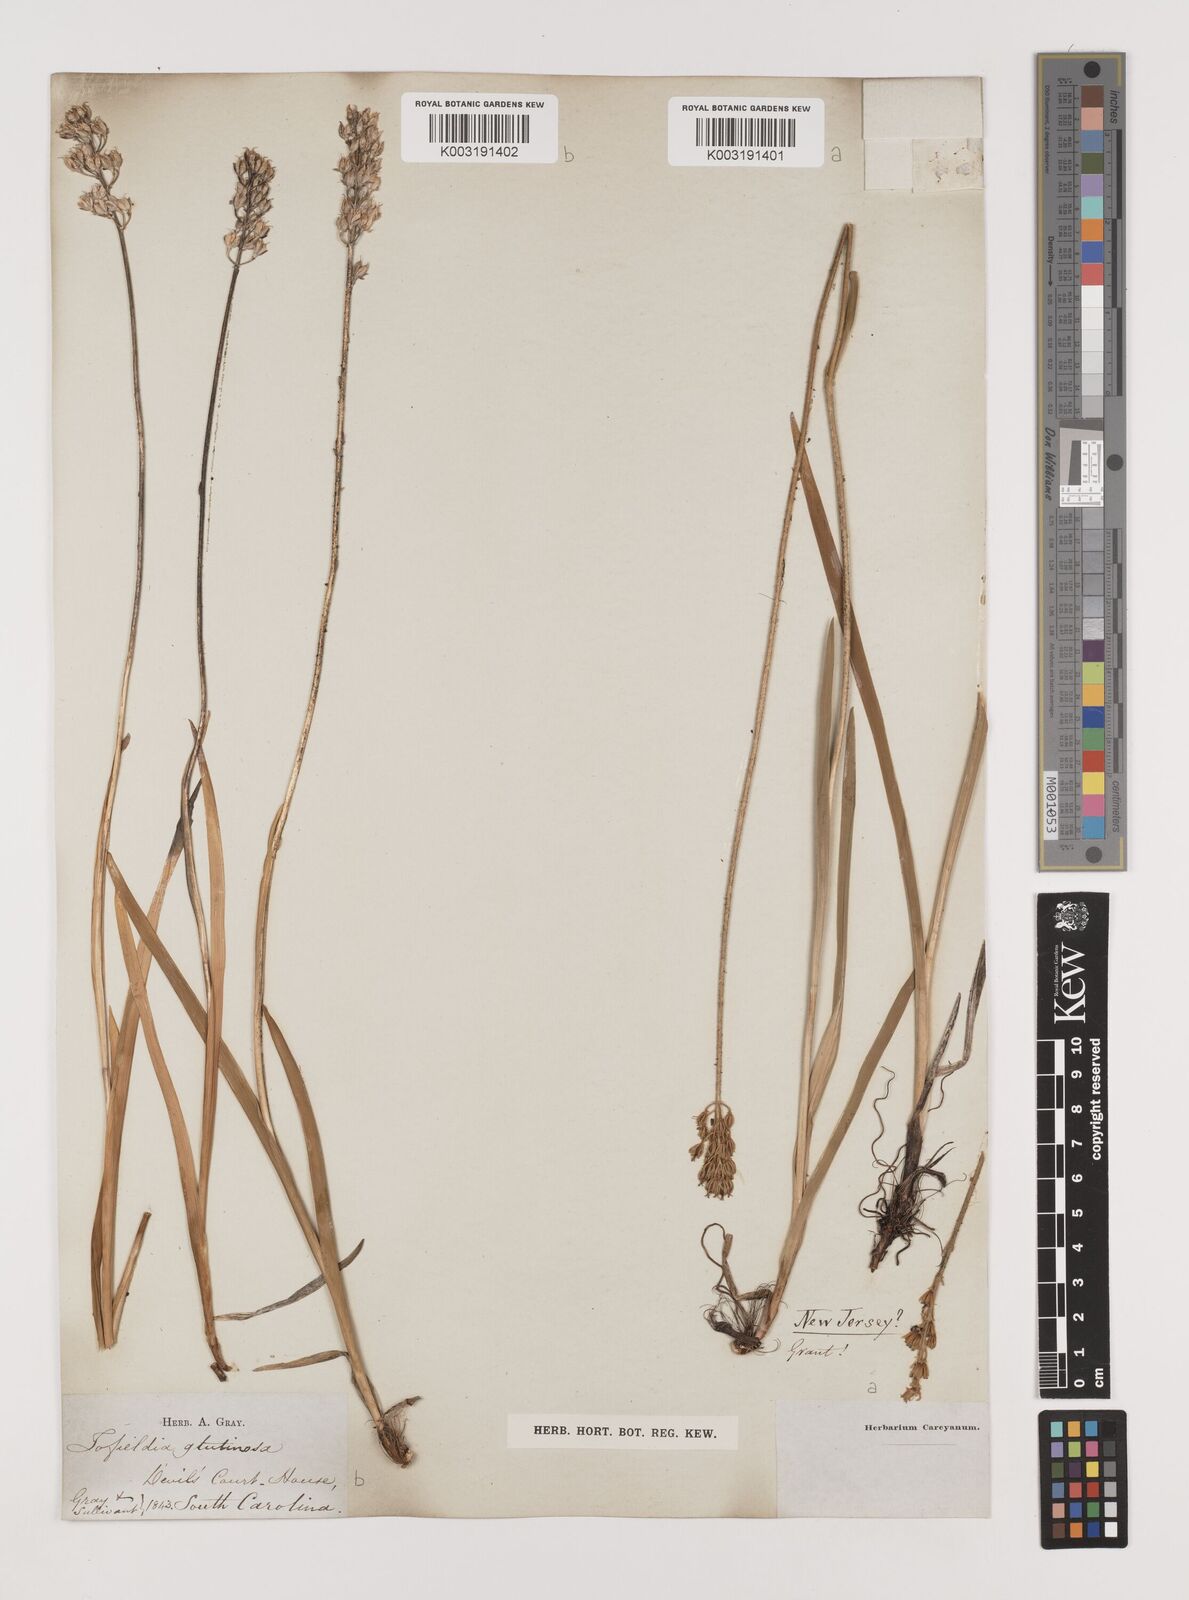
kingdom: Plantae
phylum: Tracheophyta
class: Liliopsida
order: Alismatales
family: Tofieldiaceae
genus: Triantha
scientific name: Triantha glutinosa
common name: Glutinous tofieldia
